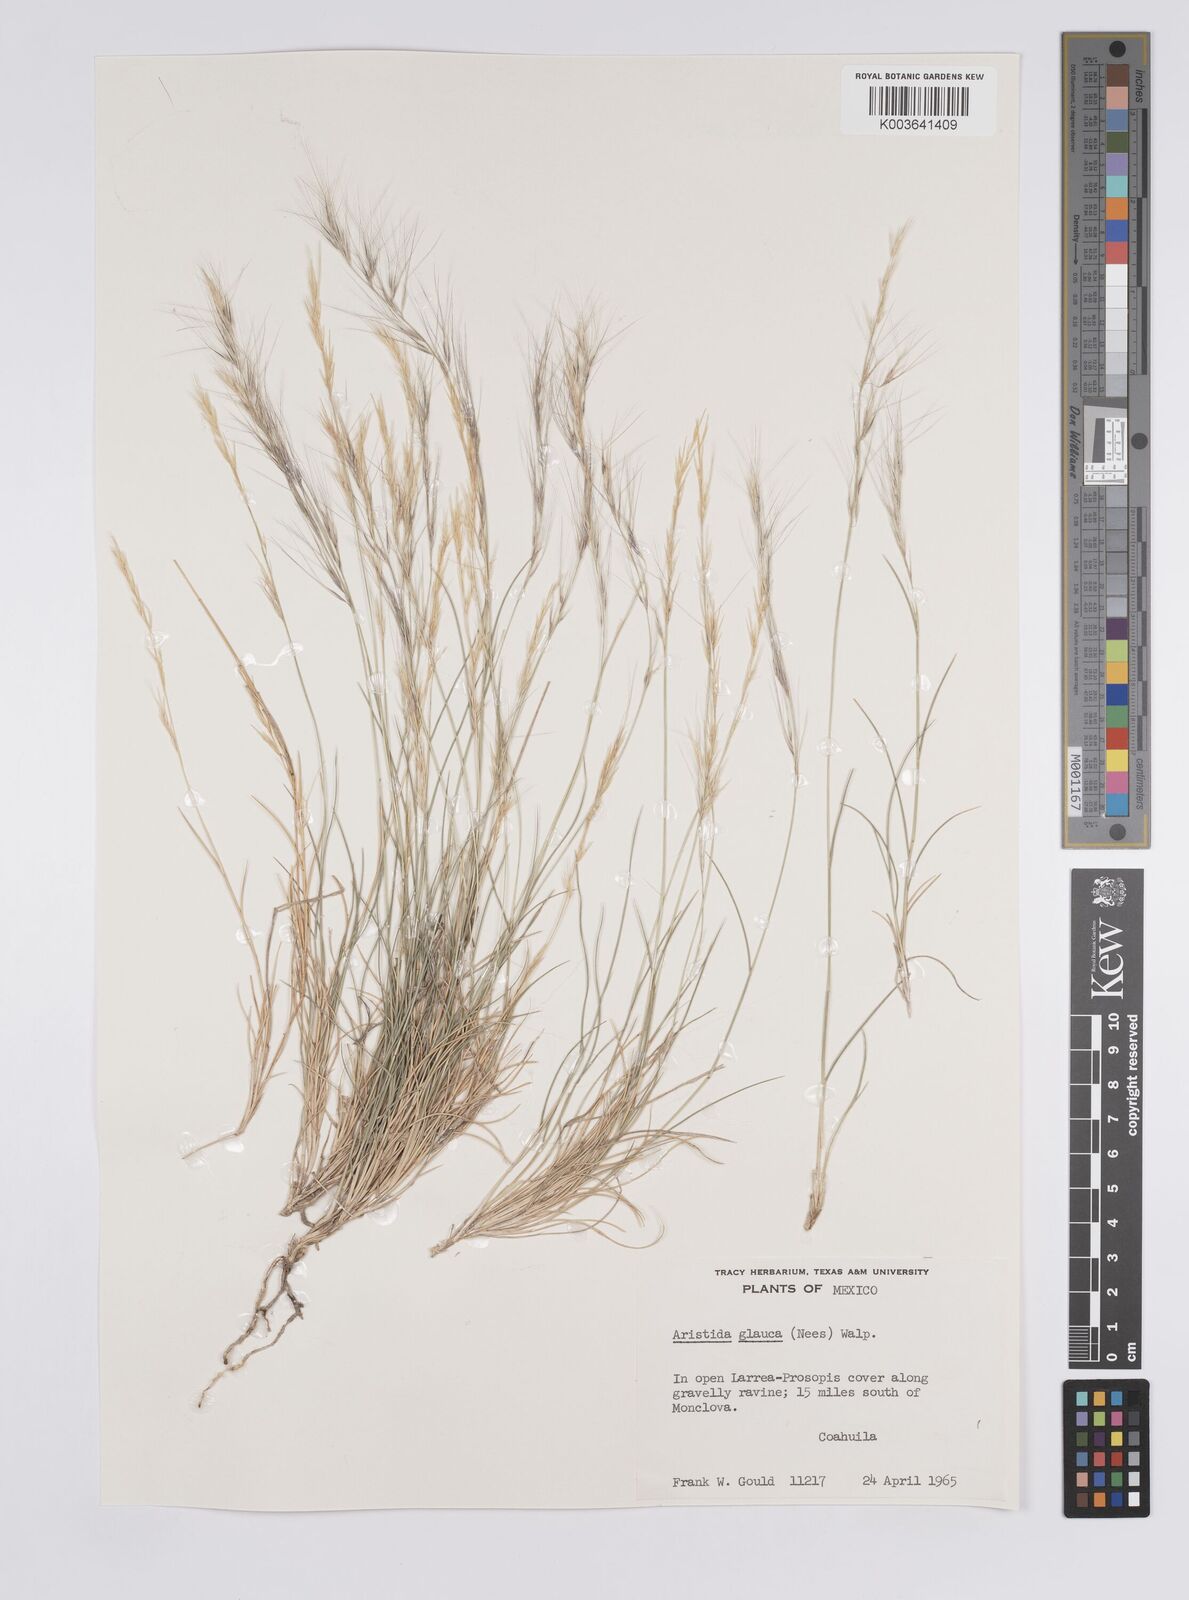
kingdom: Plantae
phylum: Tracheophyta
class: Liliopsida
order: Poales
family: Poaceae
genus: Aristida
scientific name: Aristida purpurea
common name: Purple threeawn
